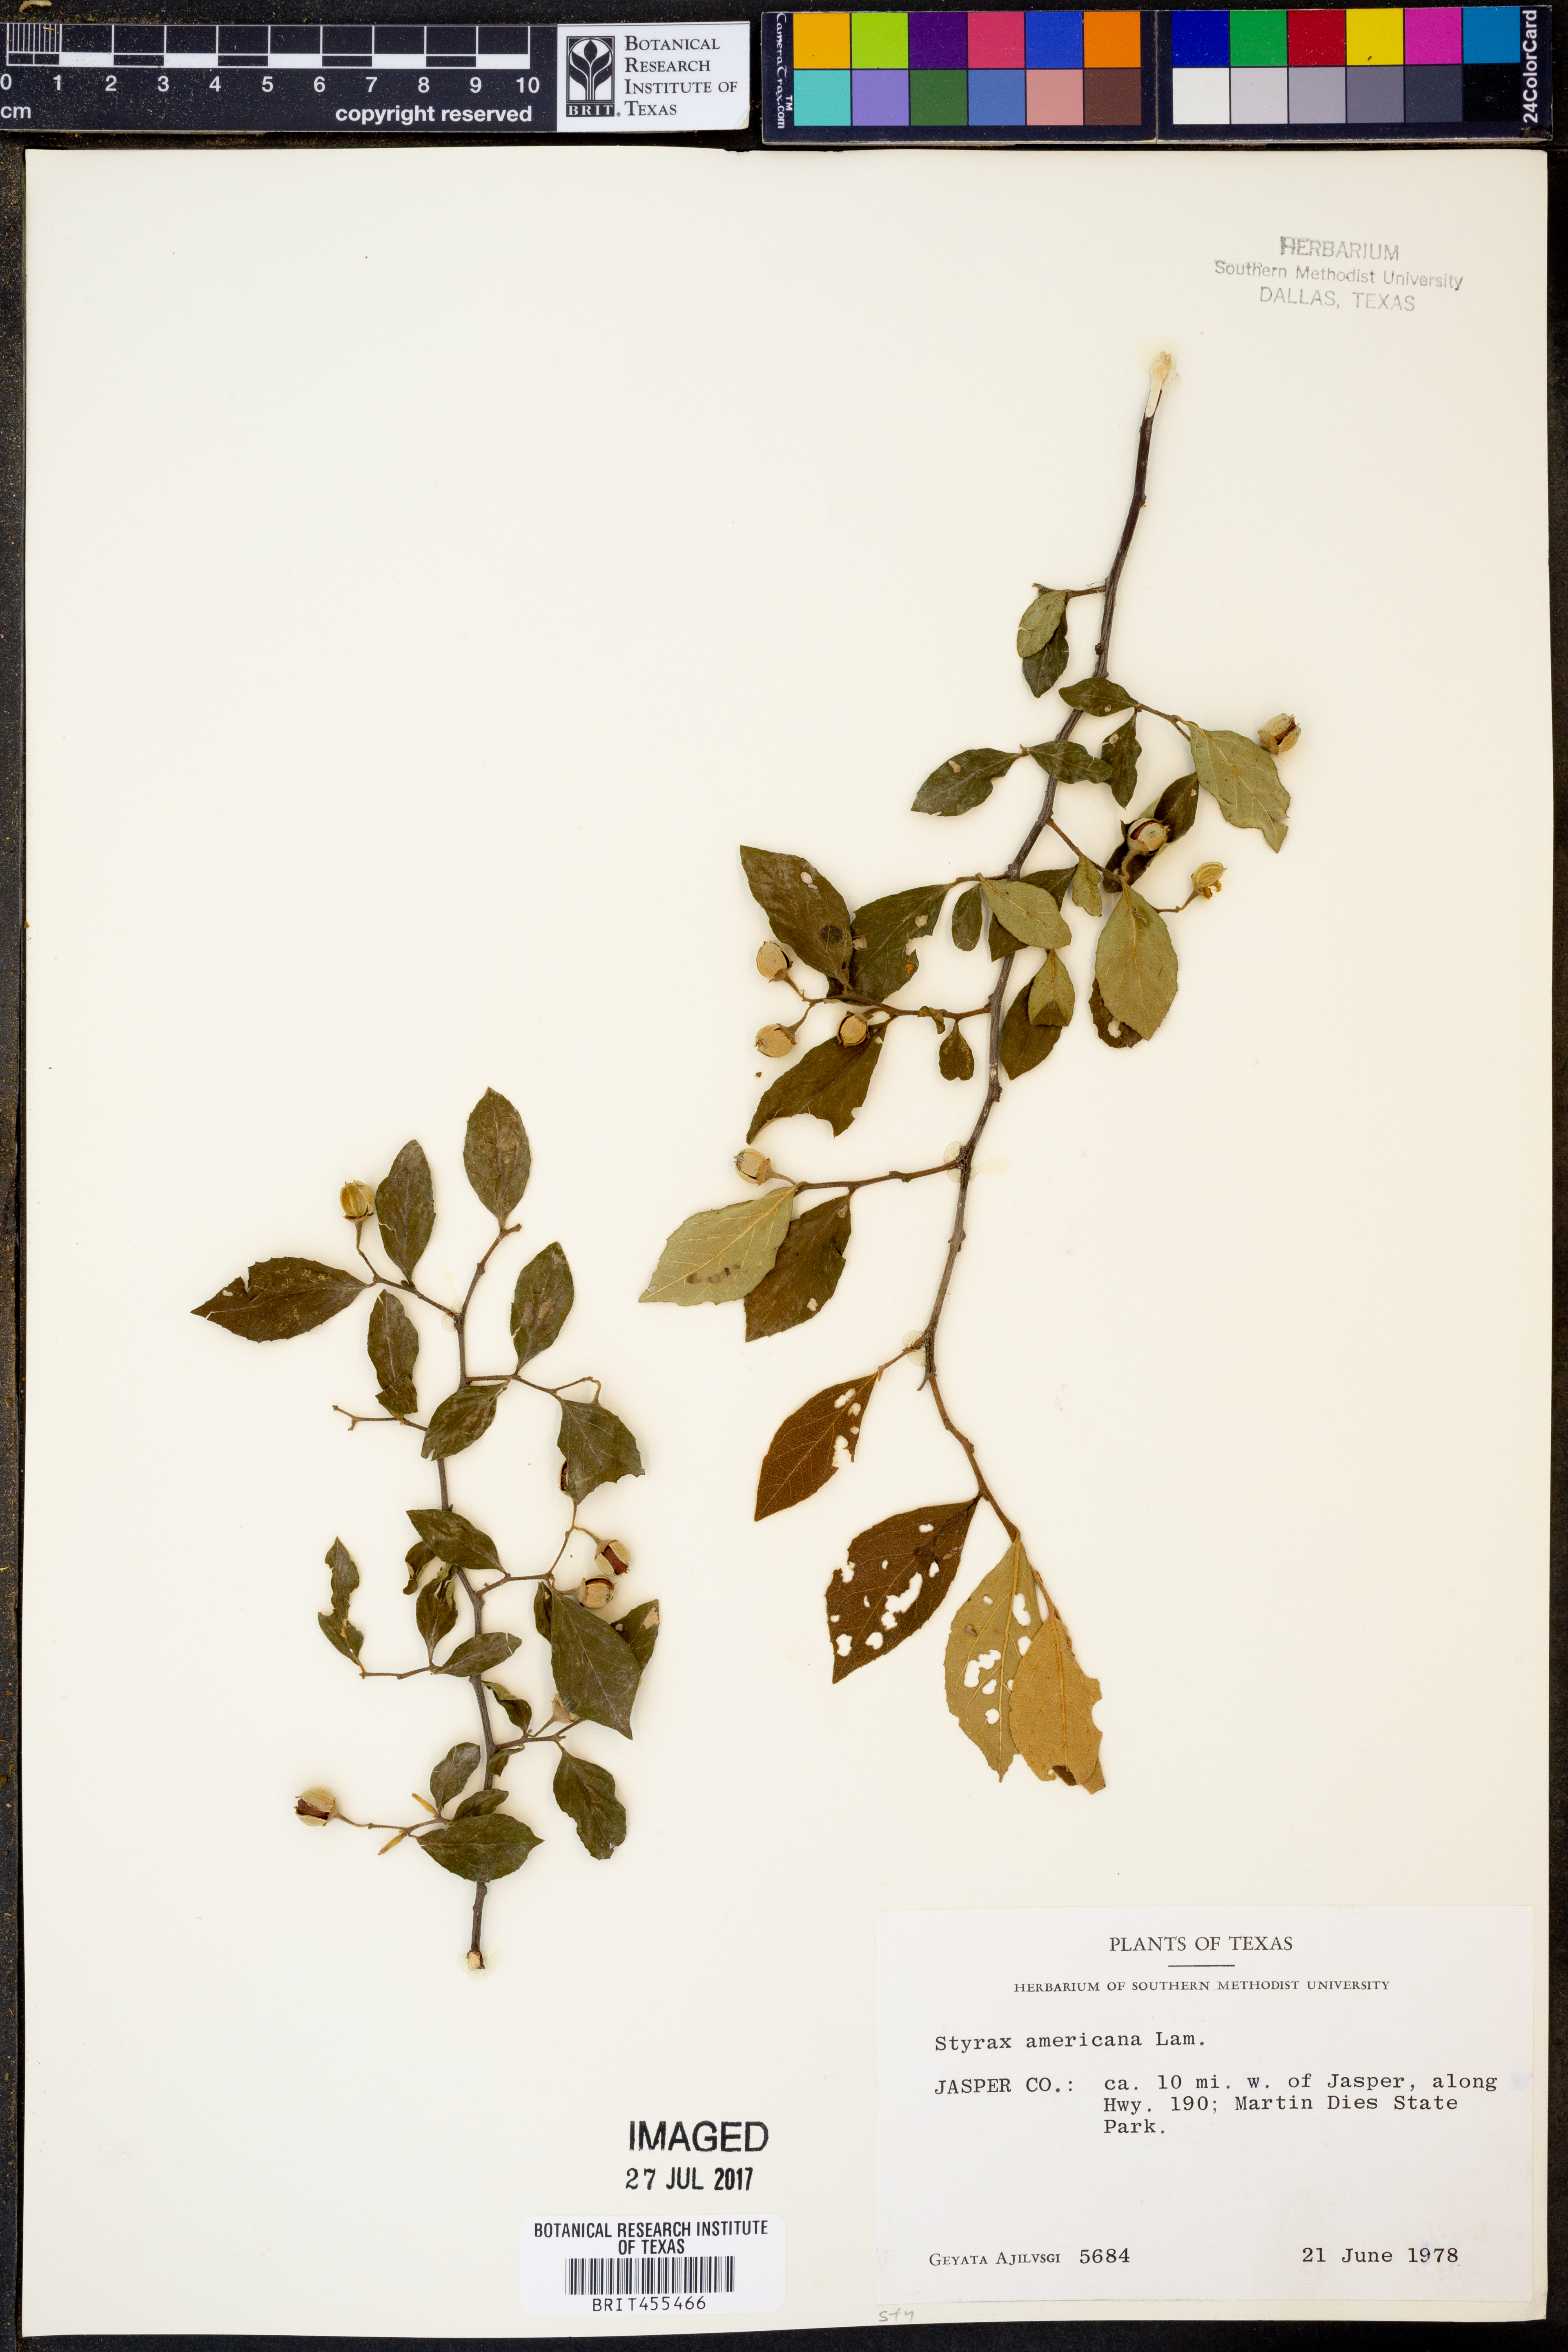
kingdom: Plantae
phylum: Tracheophyta
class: Magnoliopsida
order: Ericales
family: Styracaceae
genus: Styrax
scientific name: Styrax americanus
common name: American snowbell
